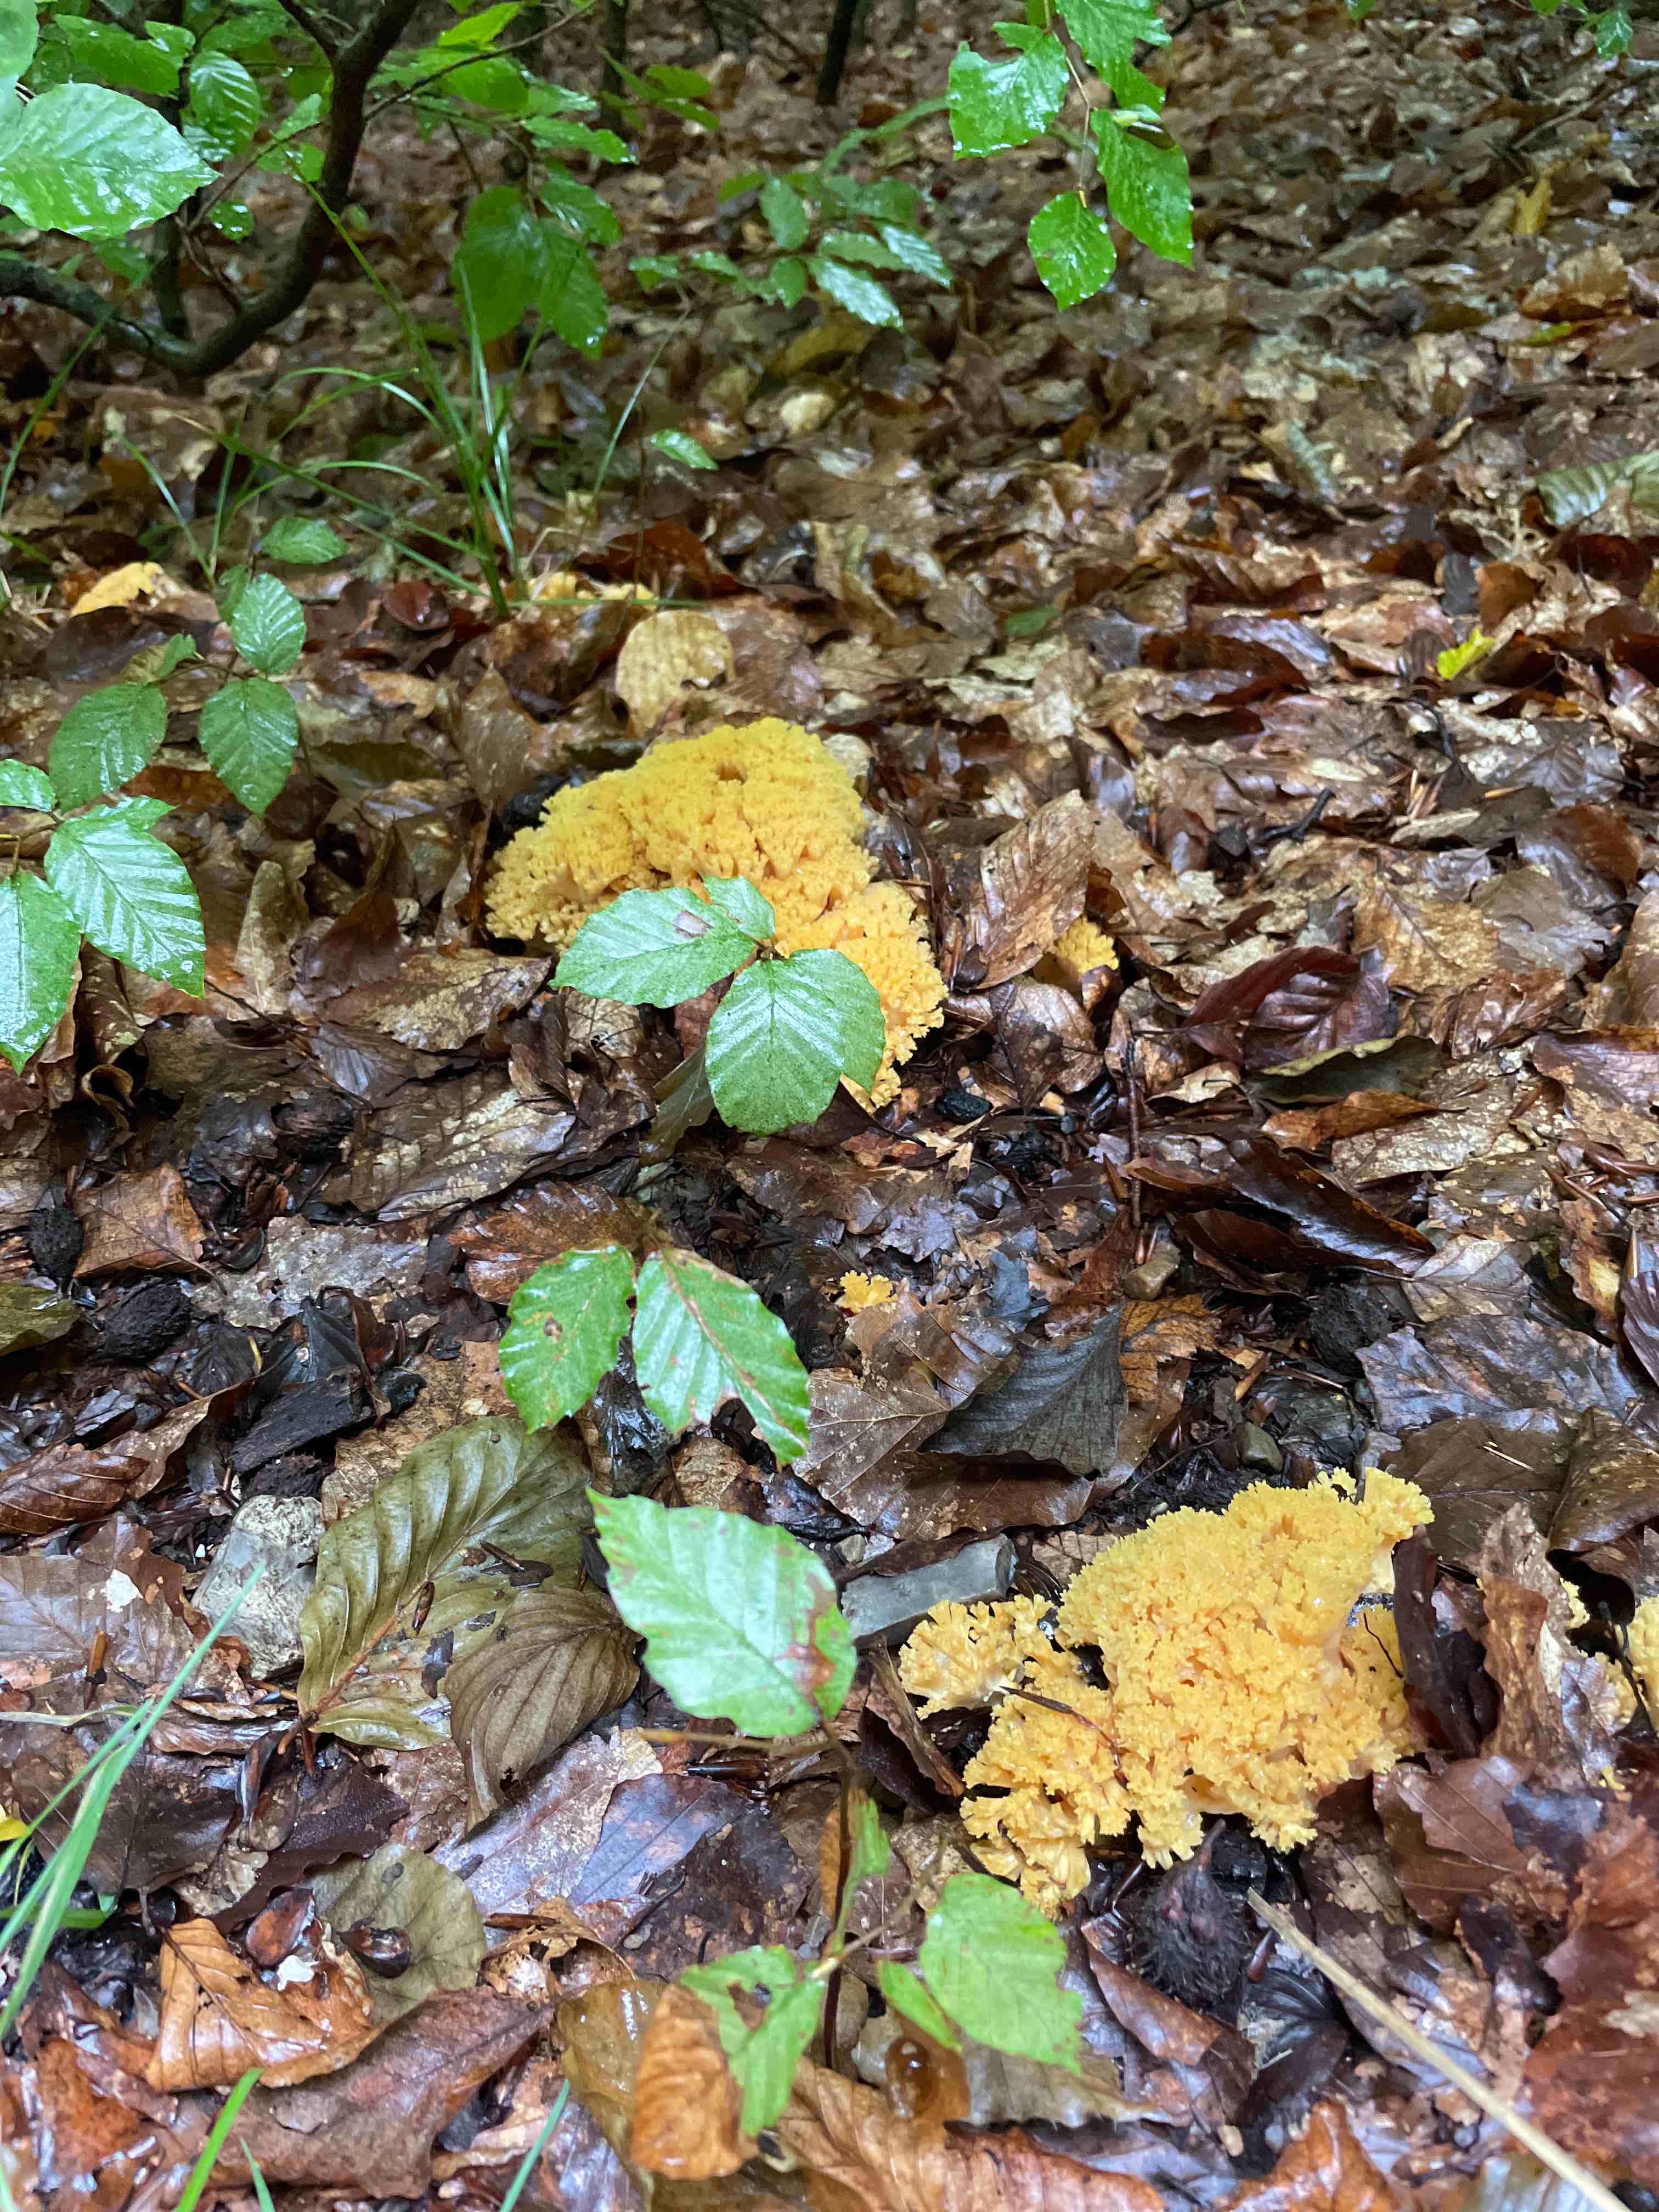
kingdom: Fungi
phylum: Basidiomycota
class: Agaricomycetes
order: Gomphales
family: Gomphaceae
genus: Ramaria
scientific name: Ramaria
